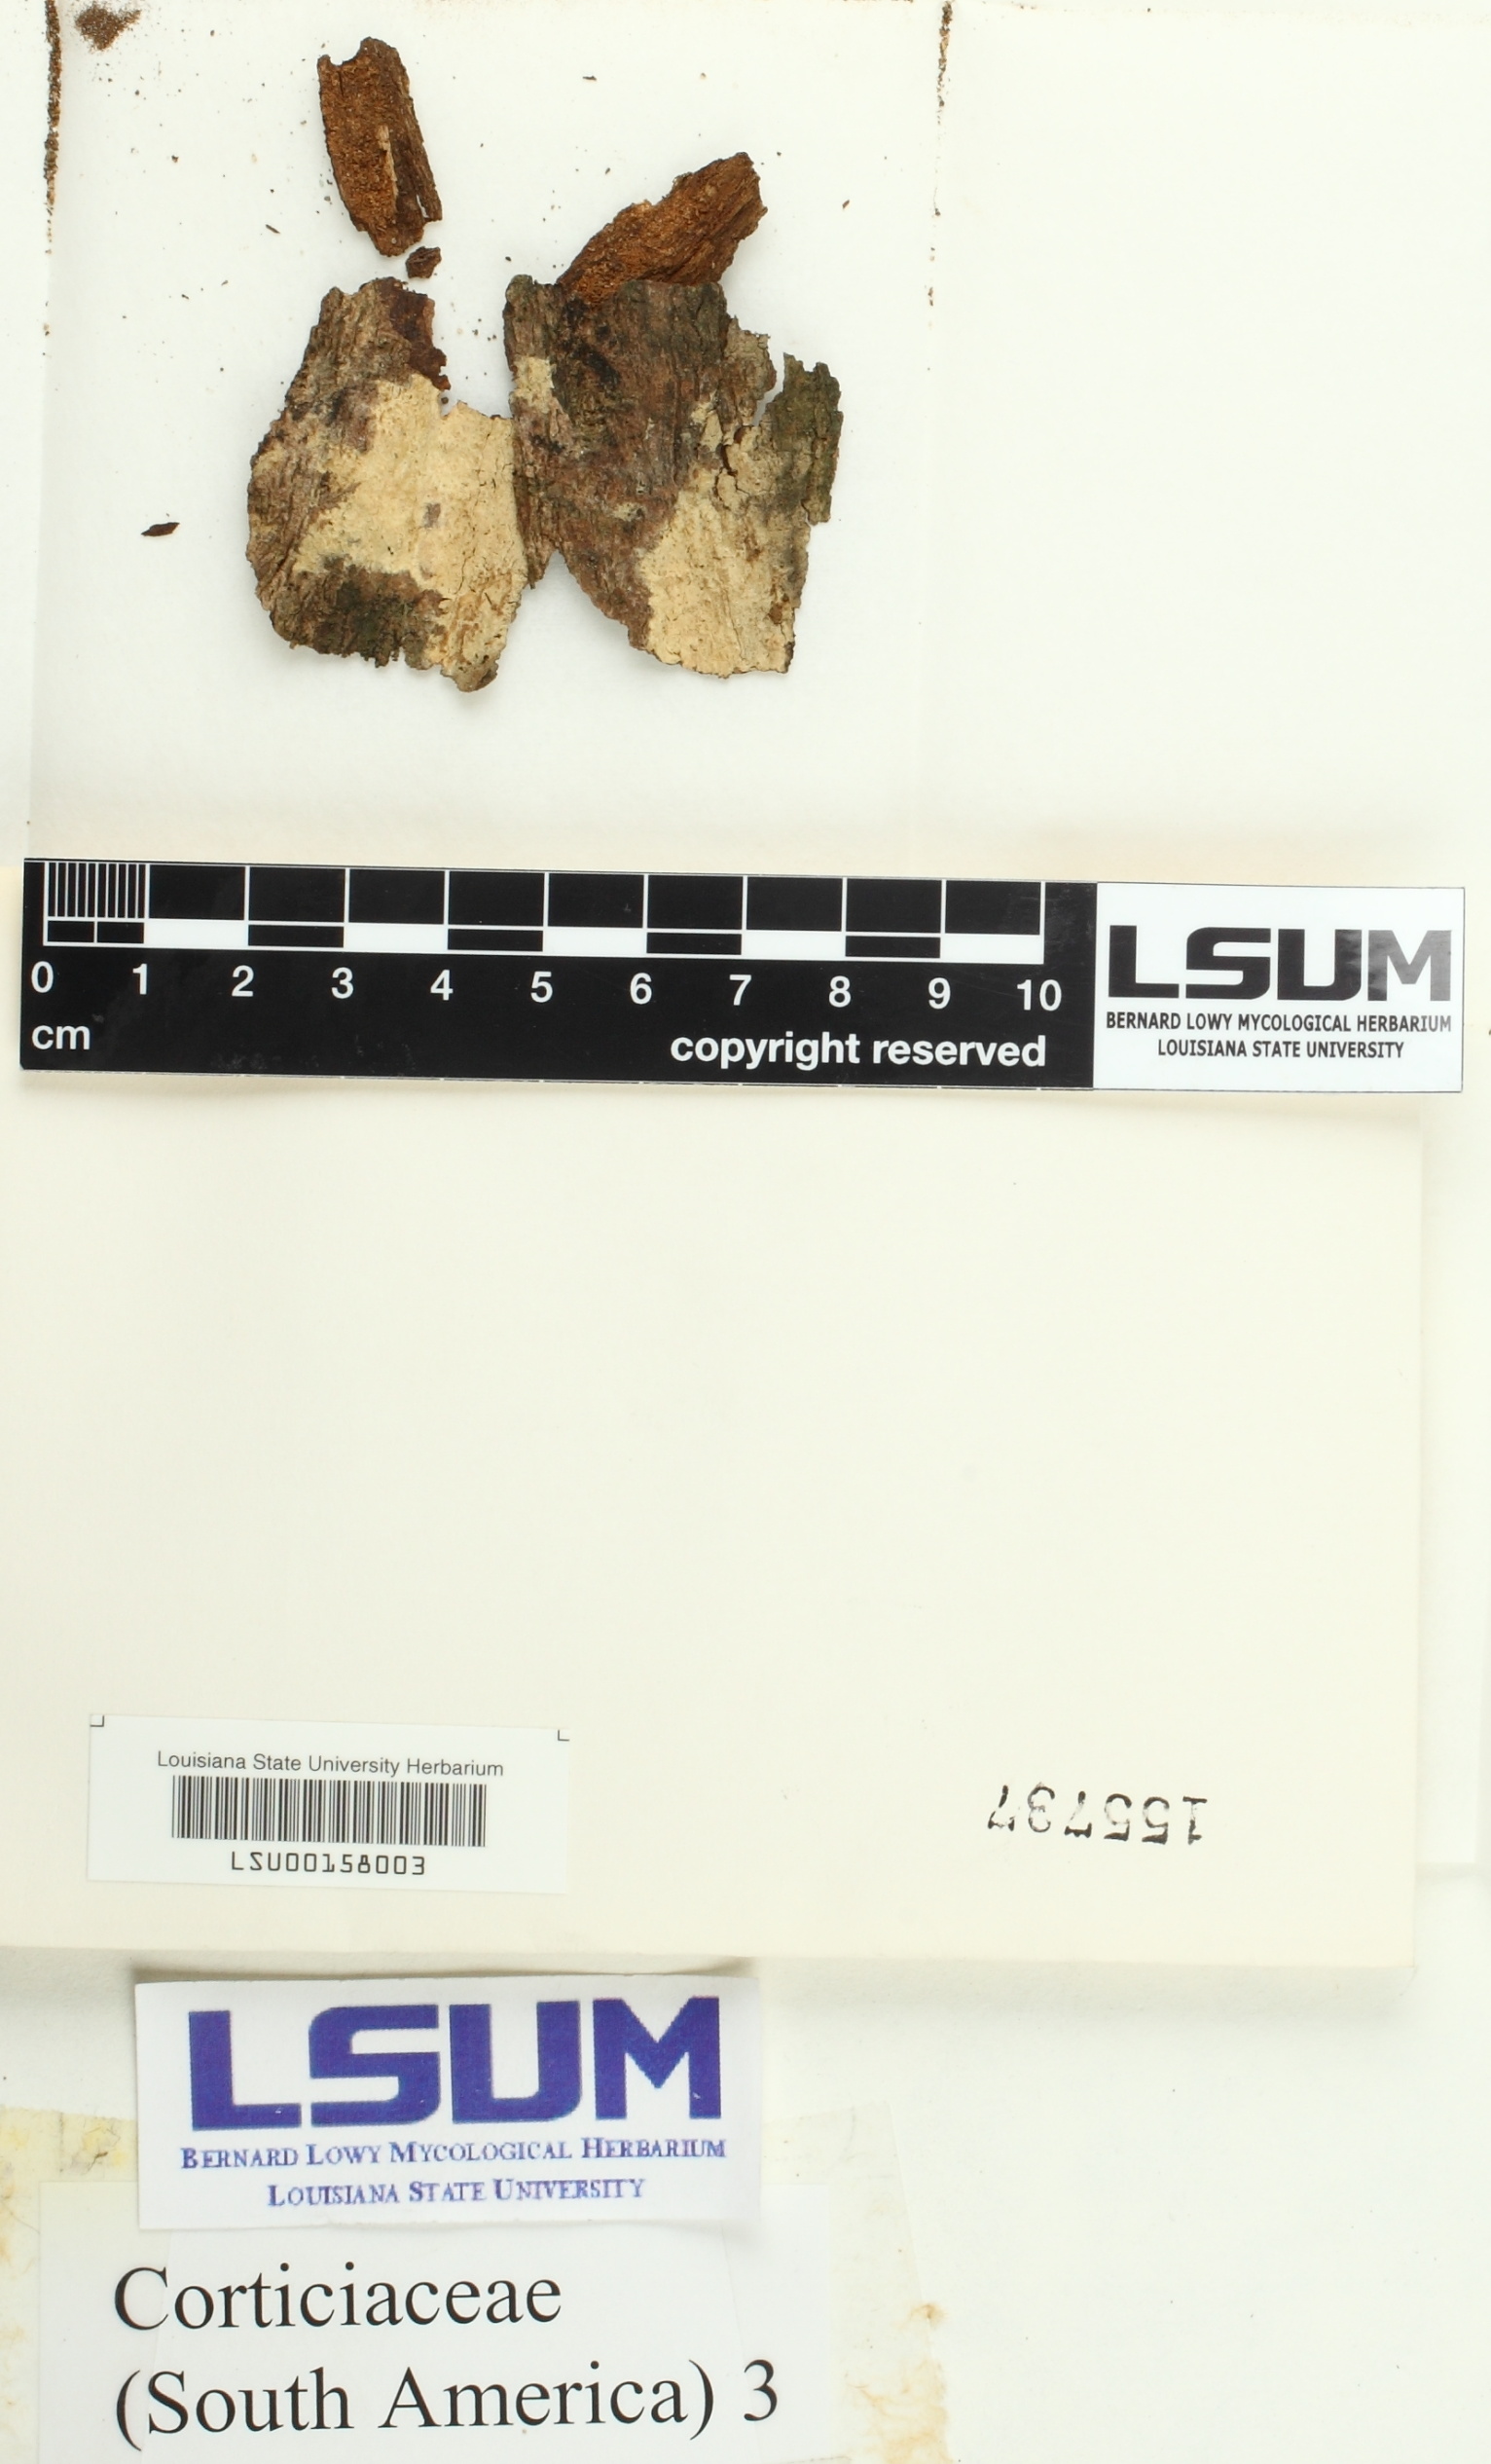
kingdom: Fungi
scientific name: Fungi
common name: Fungi
